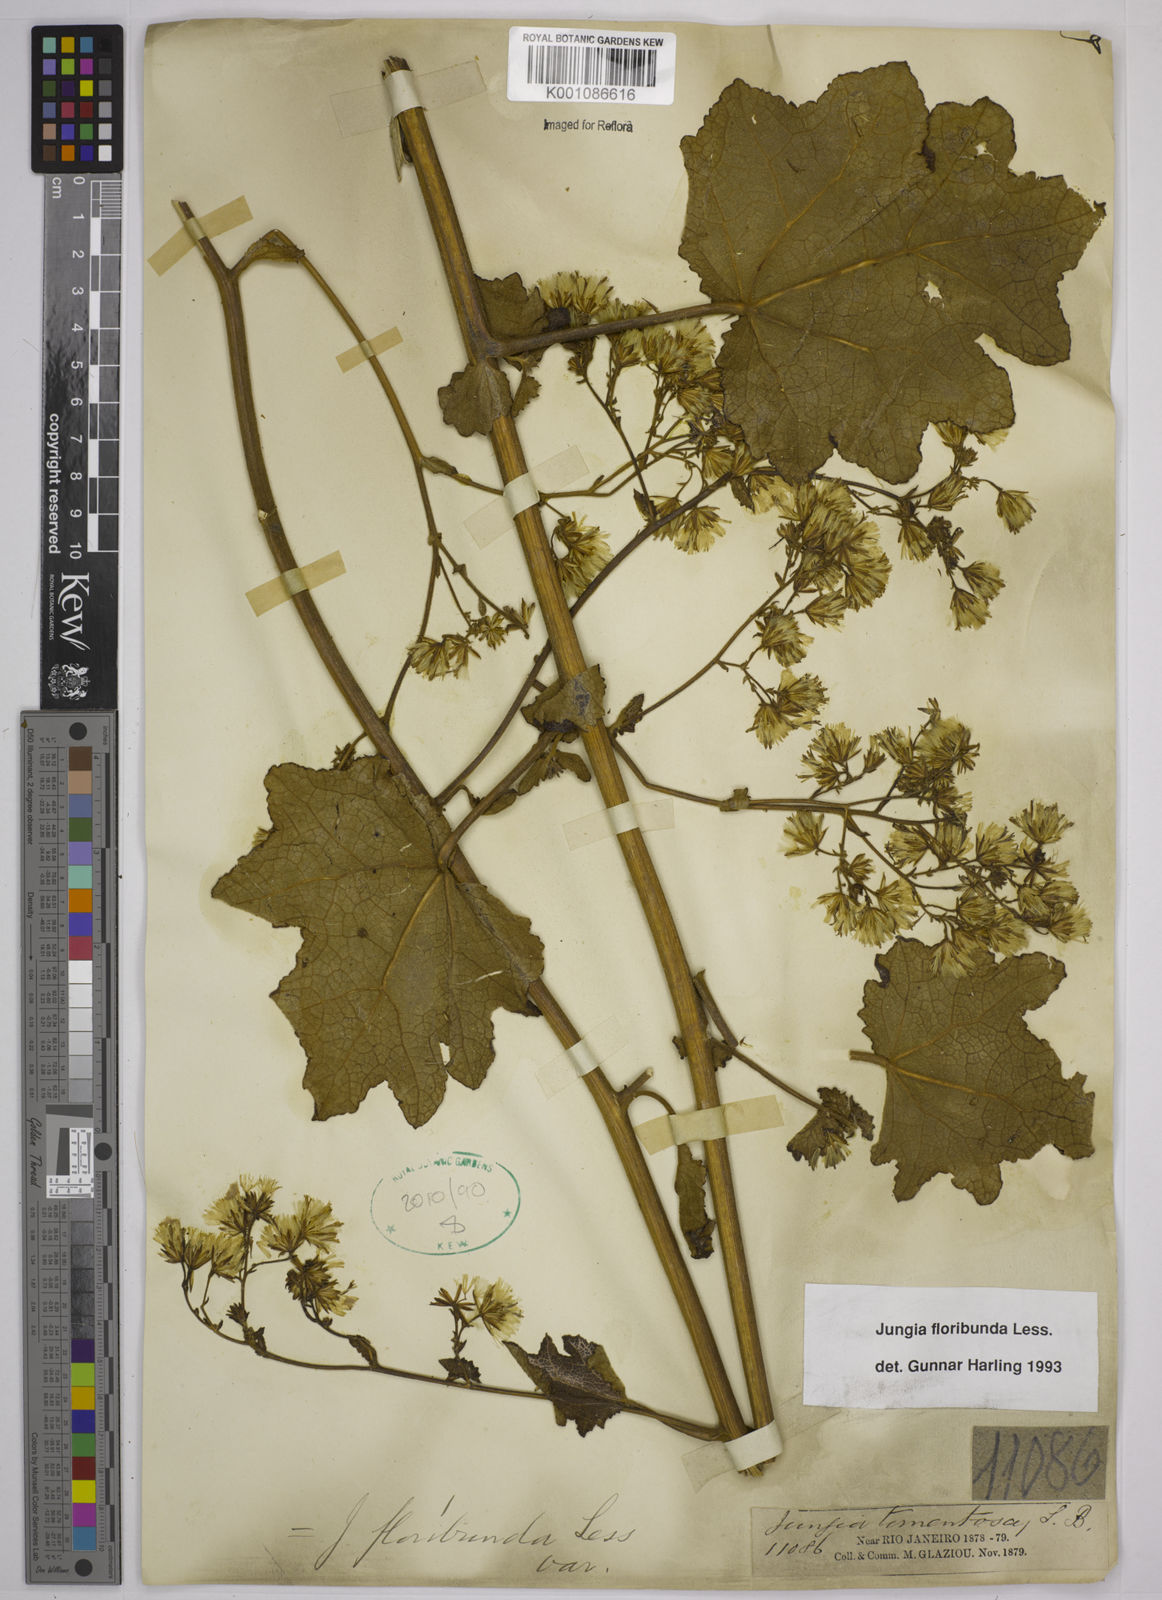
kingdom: Plantae
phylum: Tracheophyta
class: Magnoliopsida
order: Asterales
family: Asteraceae
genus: Jungia
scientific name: Jungia floribunda
